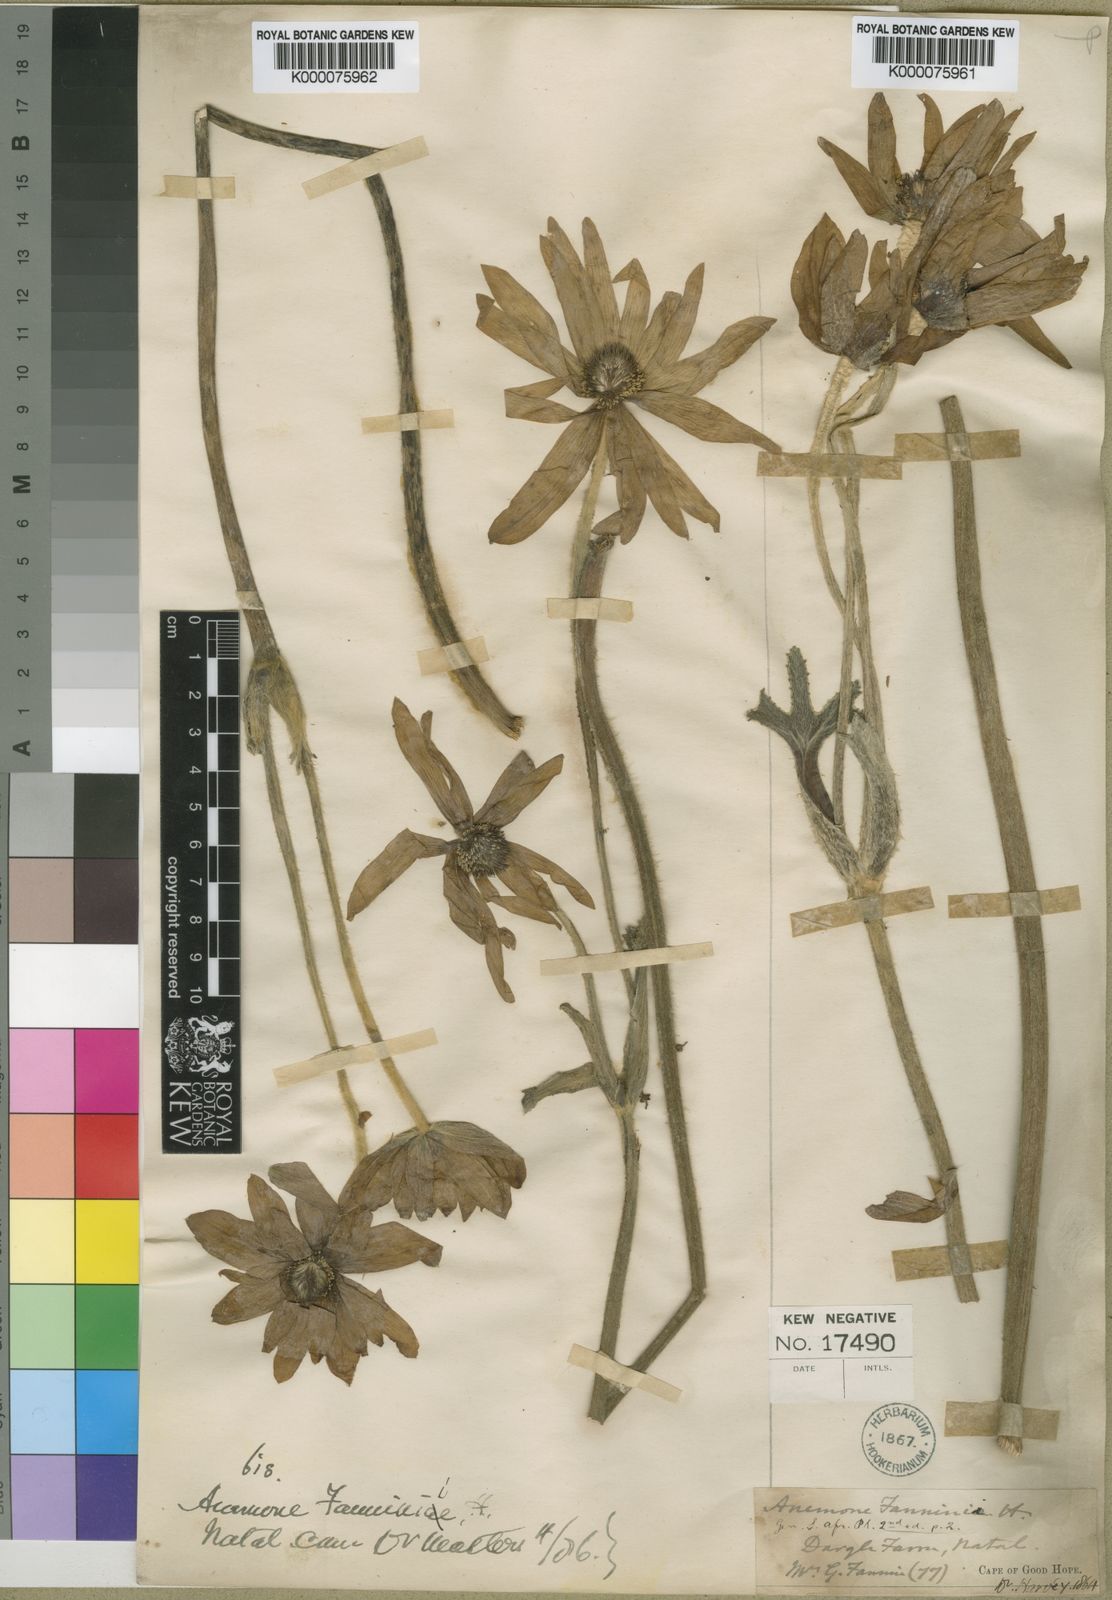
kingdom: Plantae
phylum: Tracheophyta
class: Magnoliopsida
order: Ranunculales
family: Ranunculaceae
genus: Knowltonia
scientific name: Knowltonia fanninii
